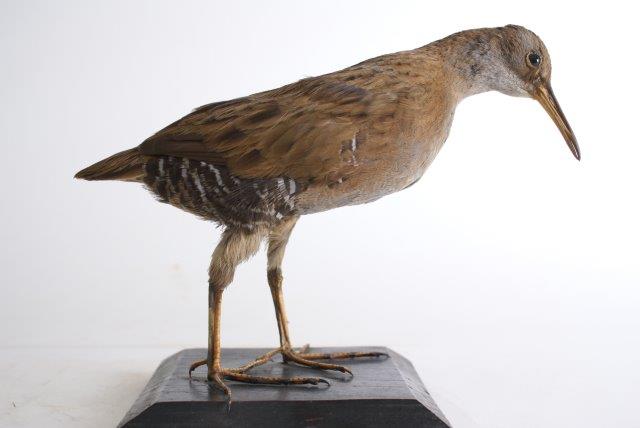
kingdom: Animalia
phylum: Chordata
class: Aves
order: Gruiformes
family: Rallidae
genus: Rallus
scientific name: Rallus aquaticus
